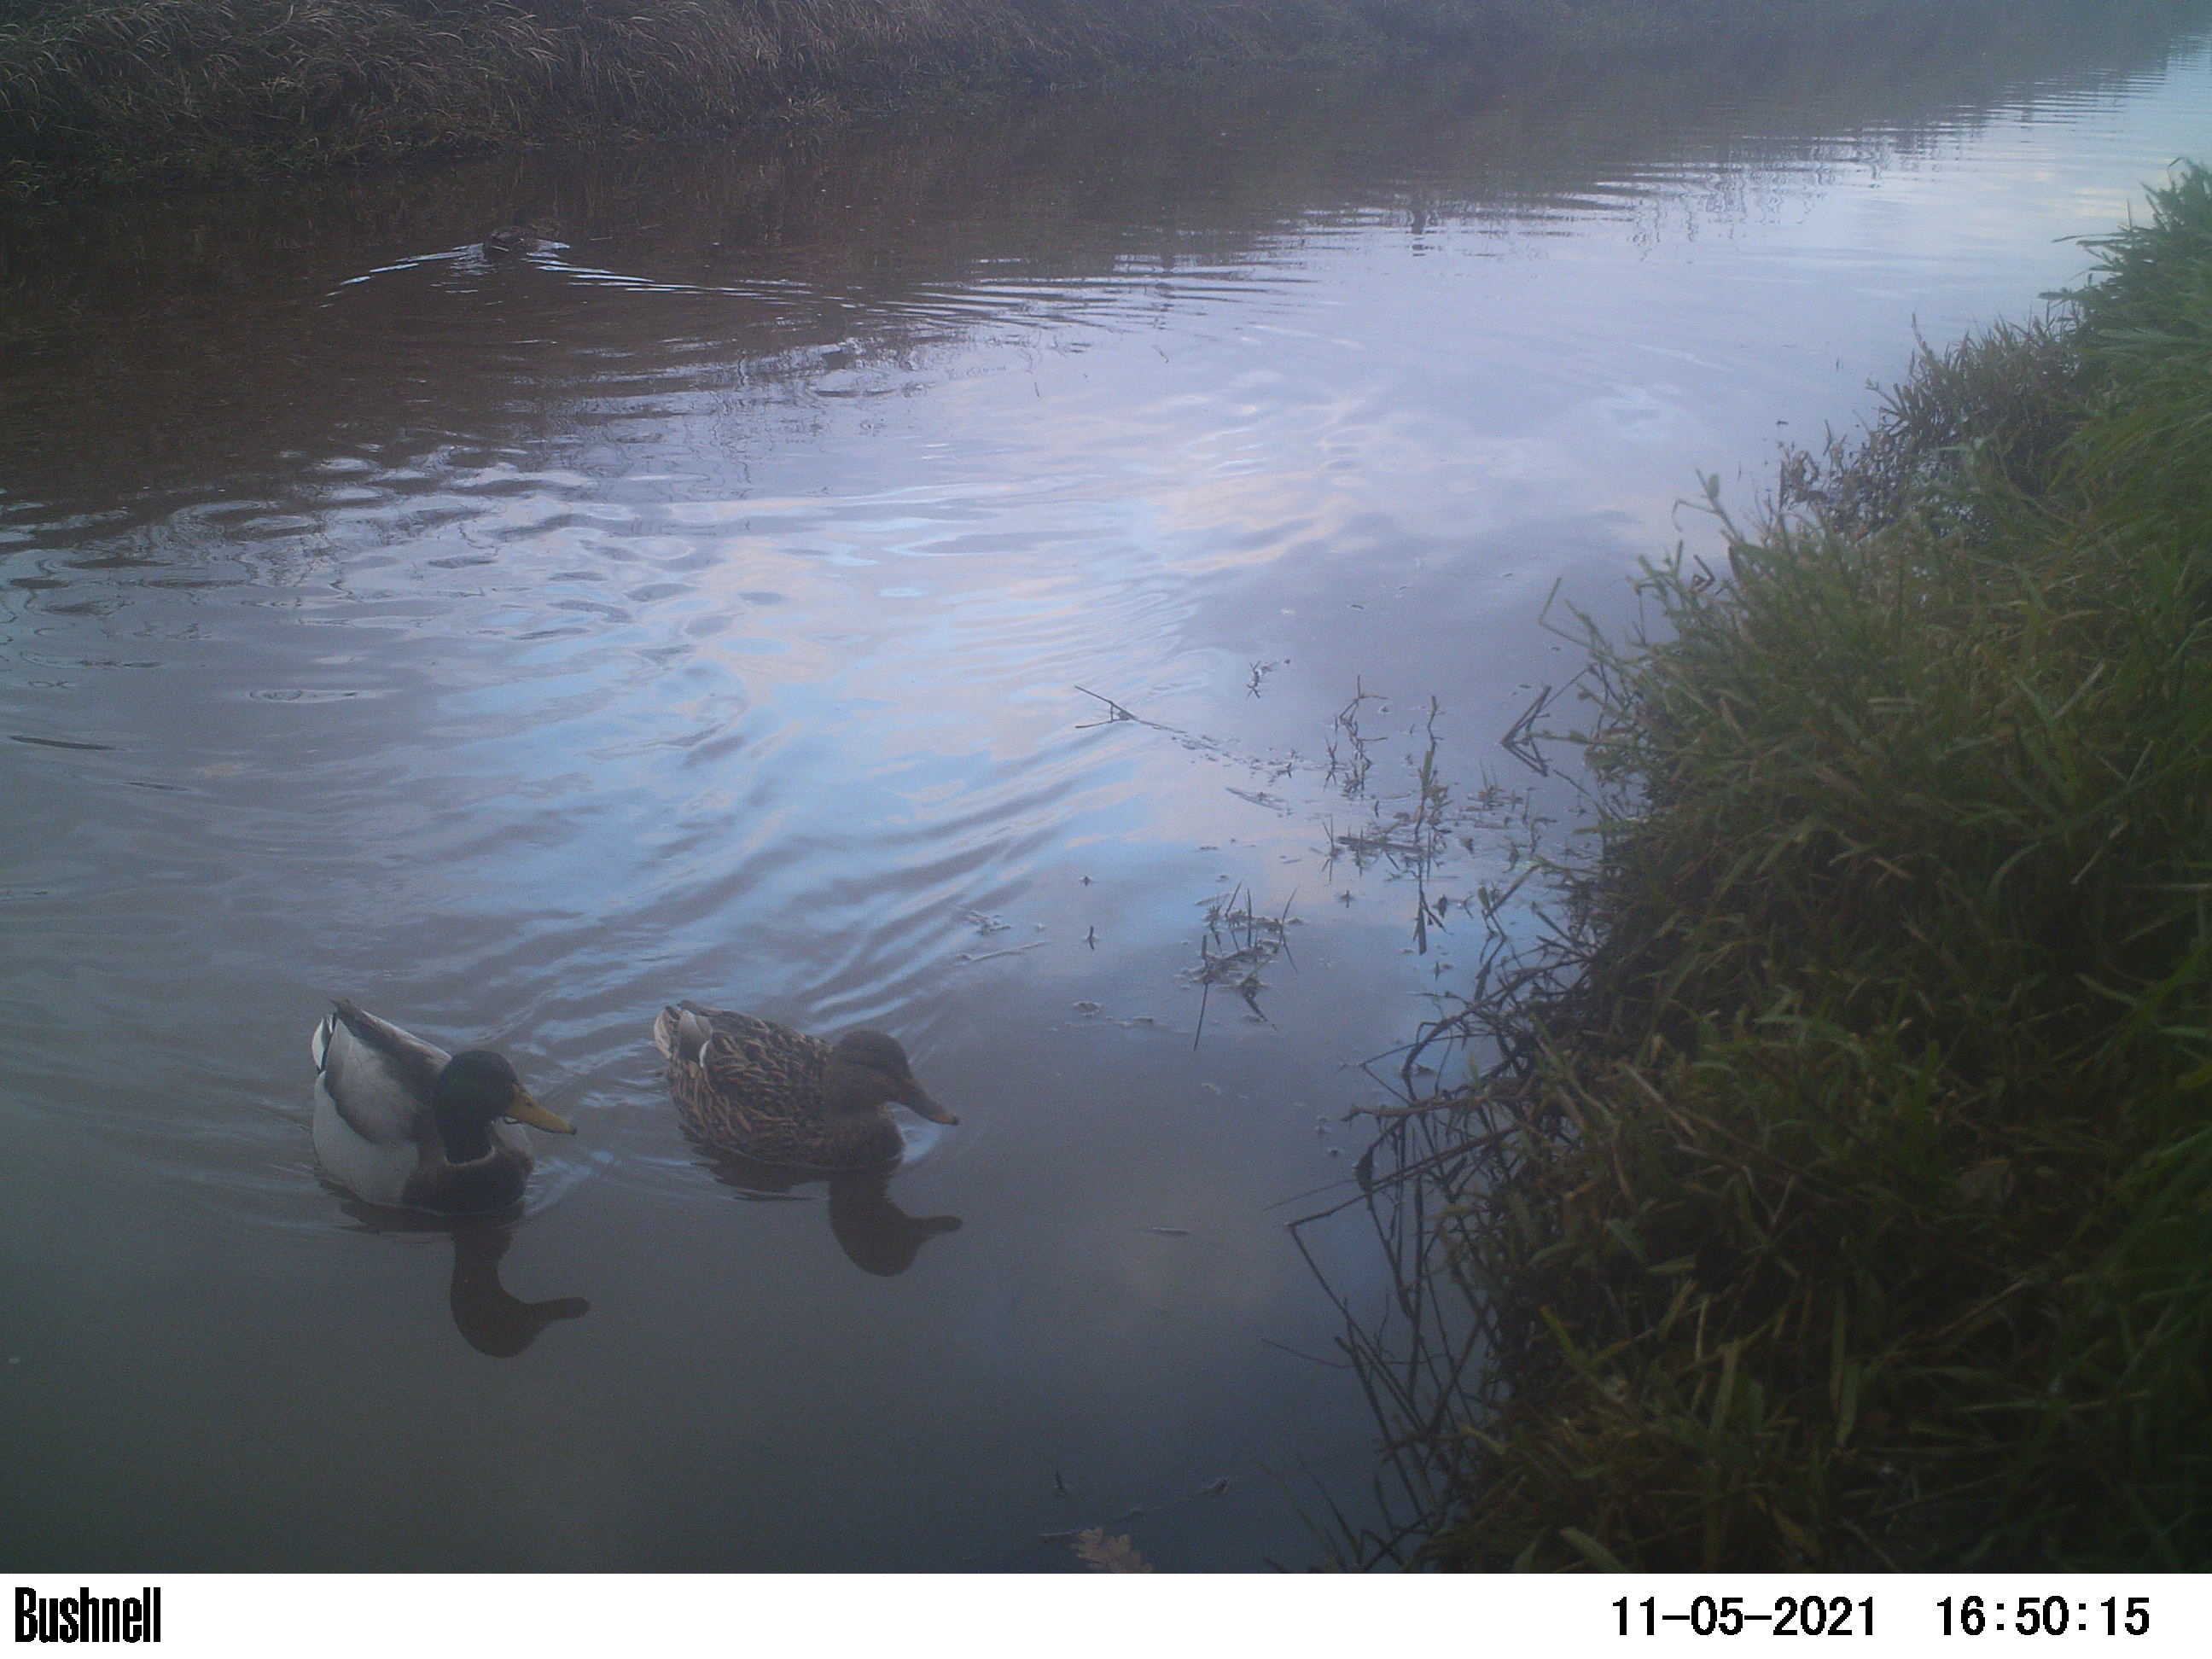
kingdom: Animalia
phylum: Chordata
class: Aves
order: Anseriformes
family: Anatidae
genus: Anas
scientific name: Anas
